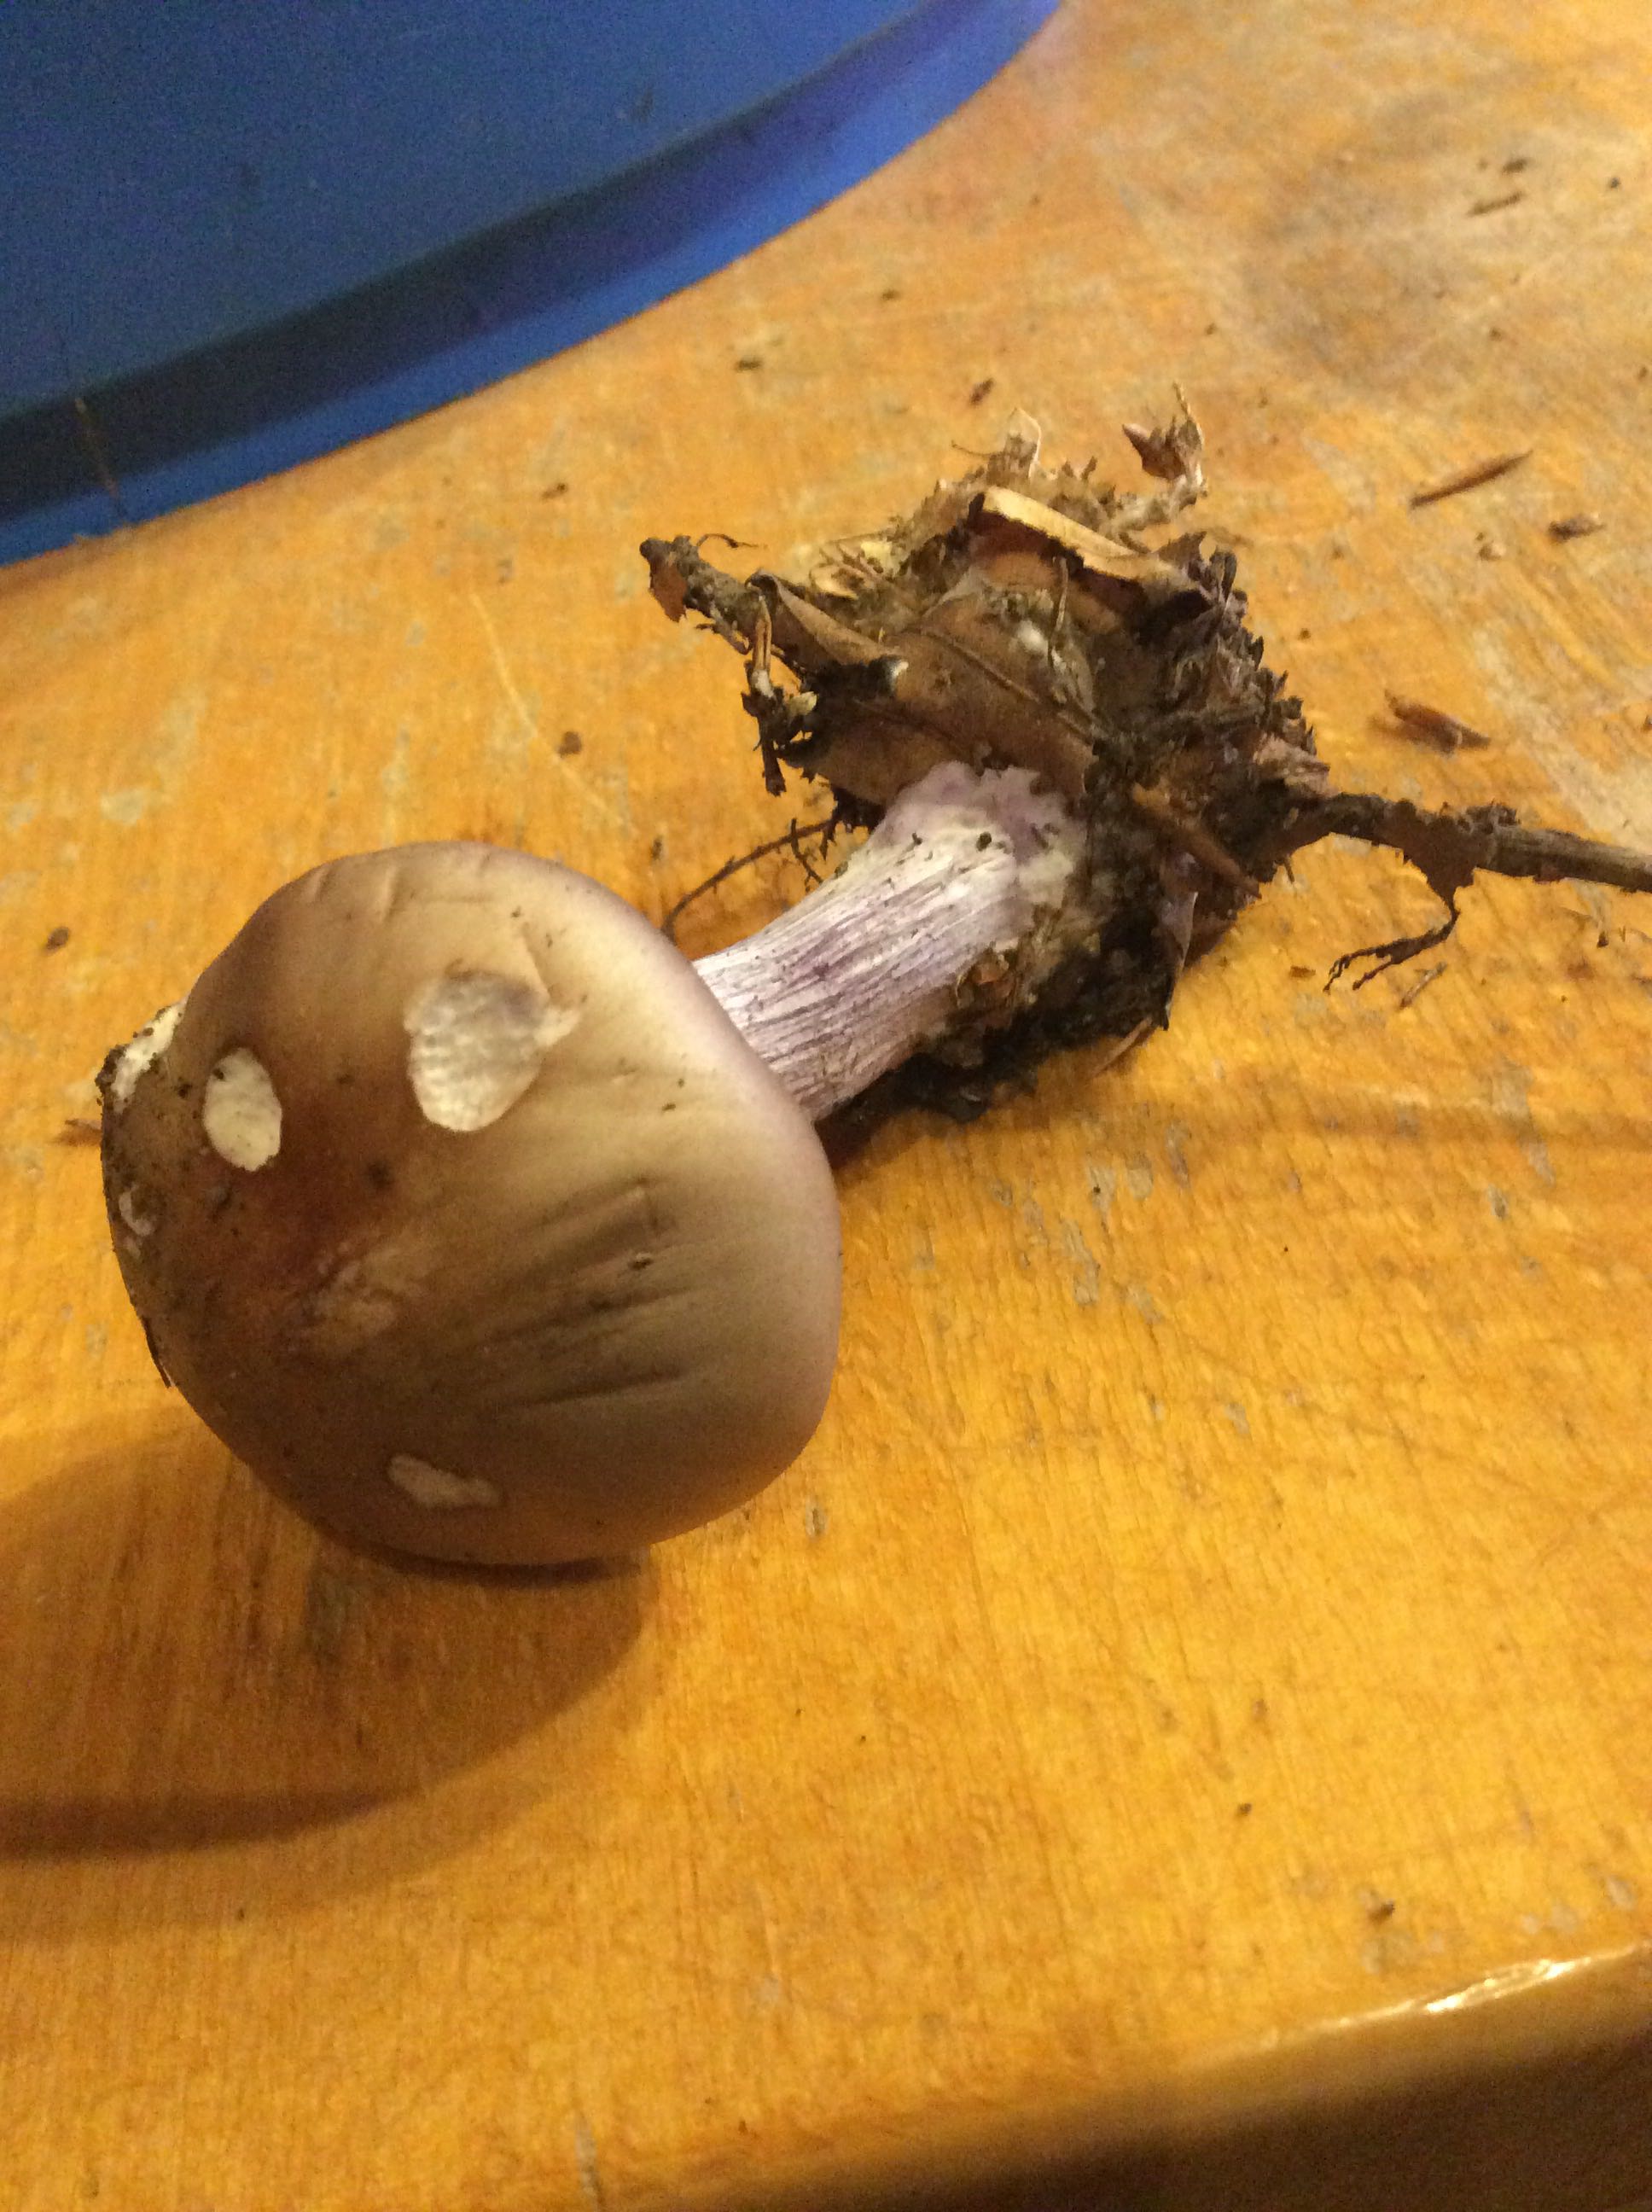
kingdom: Fungi
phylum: Basidiomycota
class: Agaricomycetes
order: Agaricales
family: Tricholomataceae
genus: Lepista
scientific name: Lepista personata
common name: bleg hekseringshat
